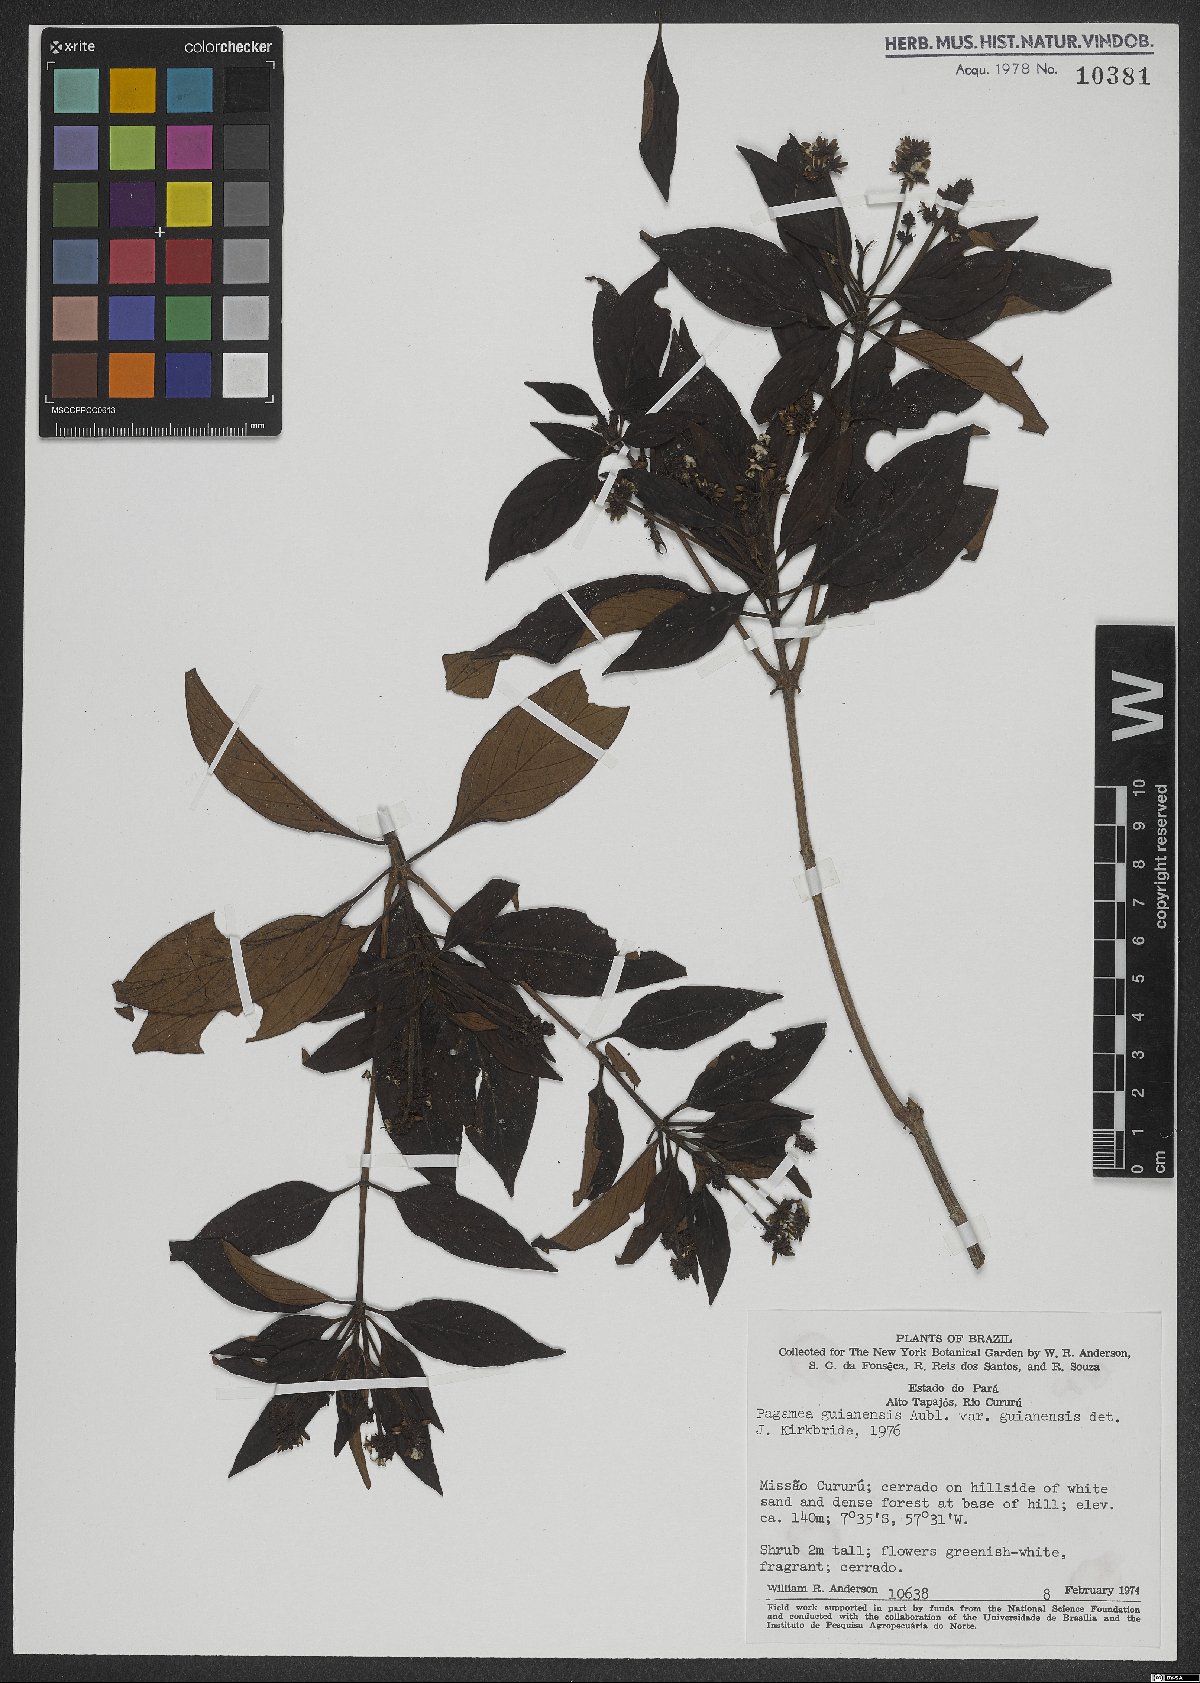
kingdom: Plantae
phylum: Tracheophyta
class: Magnoliopsida
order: Gentianales
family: Rubiaceae
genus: Pagamea
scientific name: Pagamea guianensis
